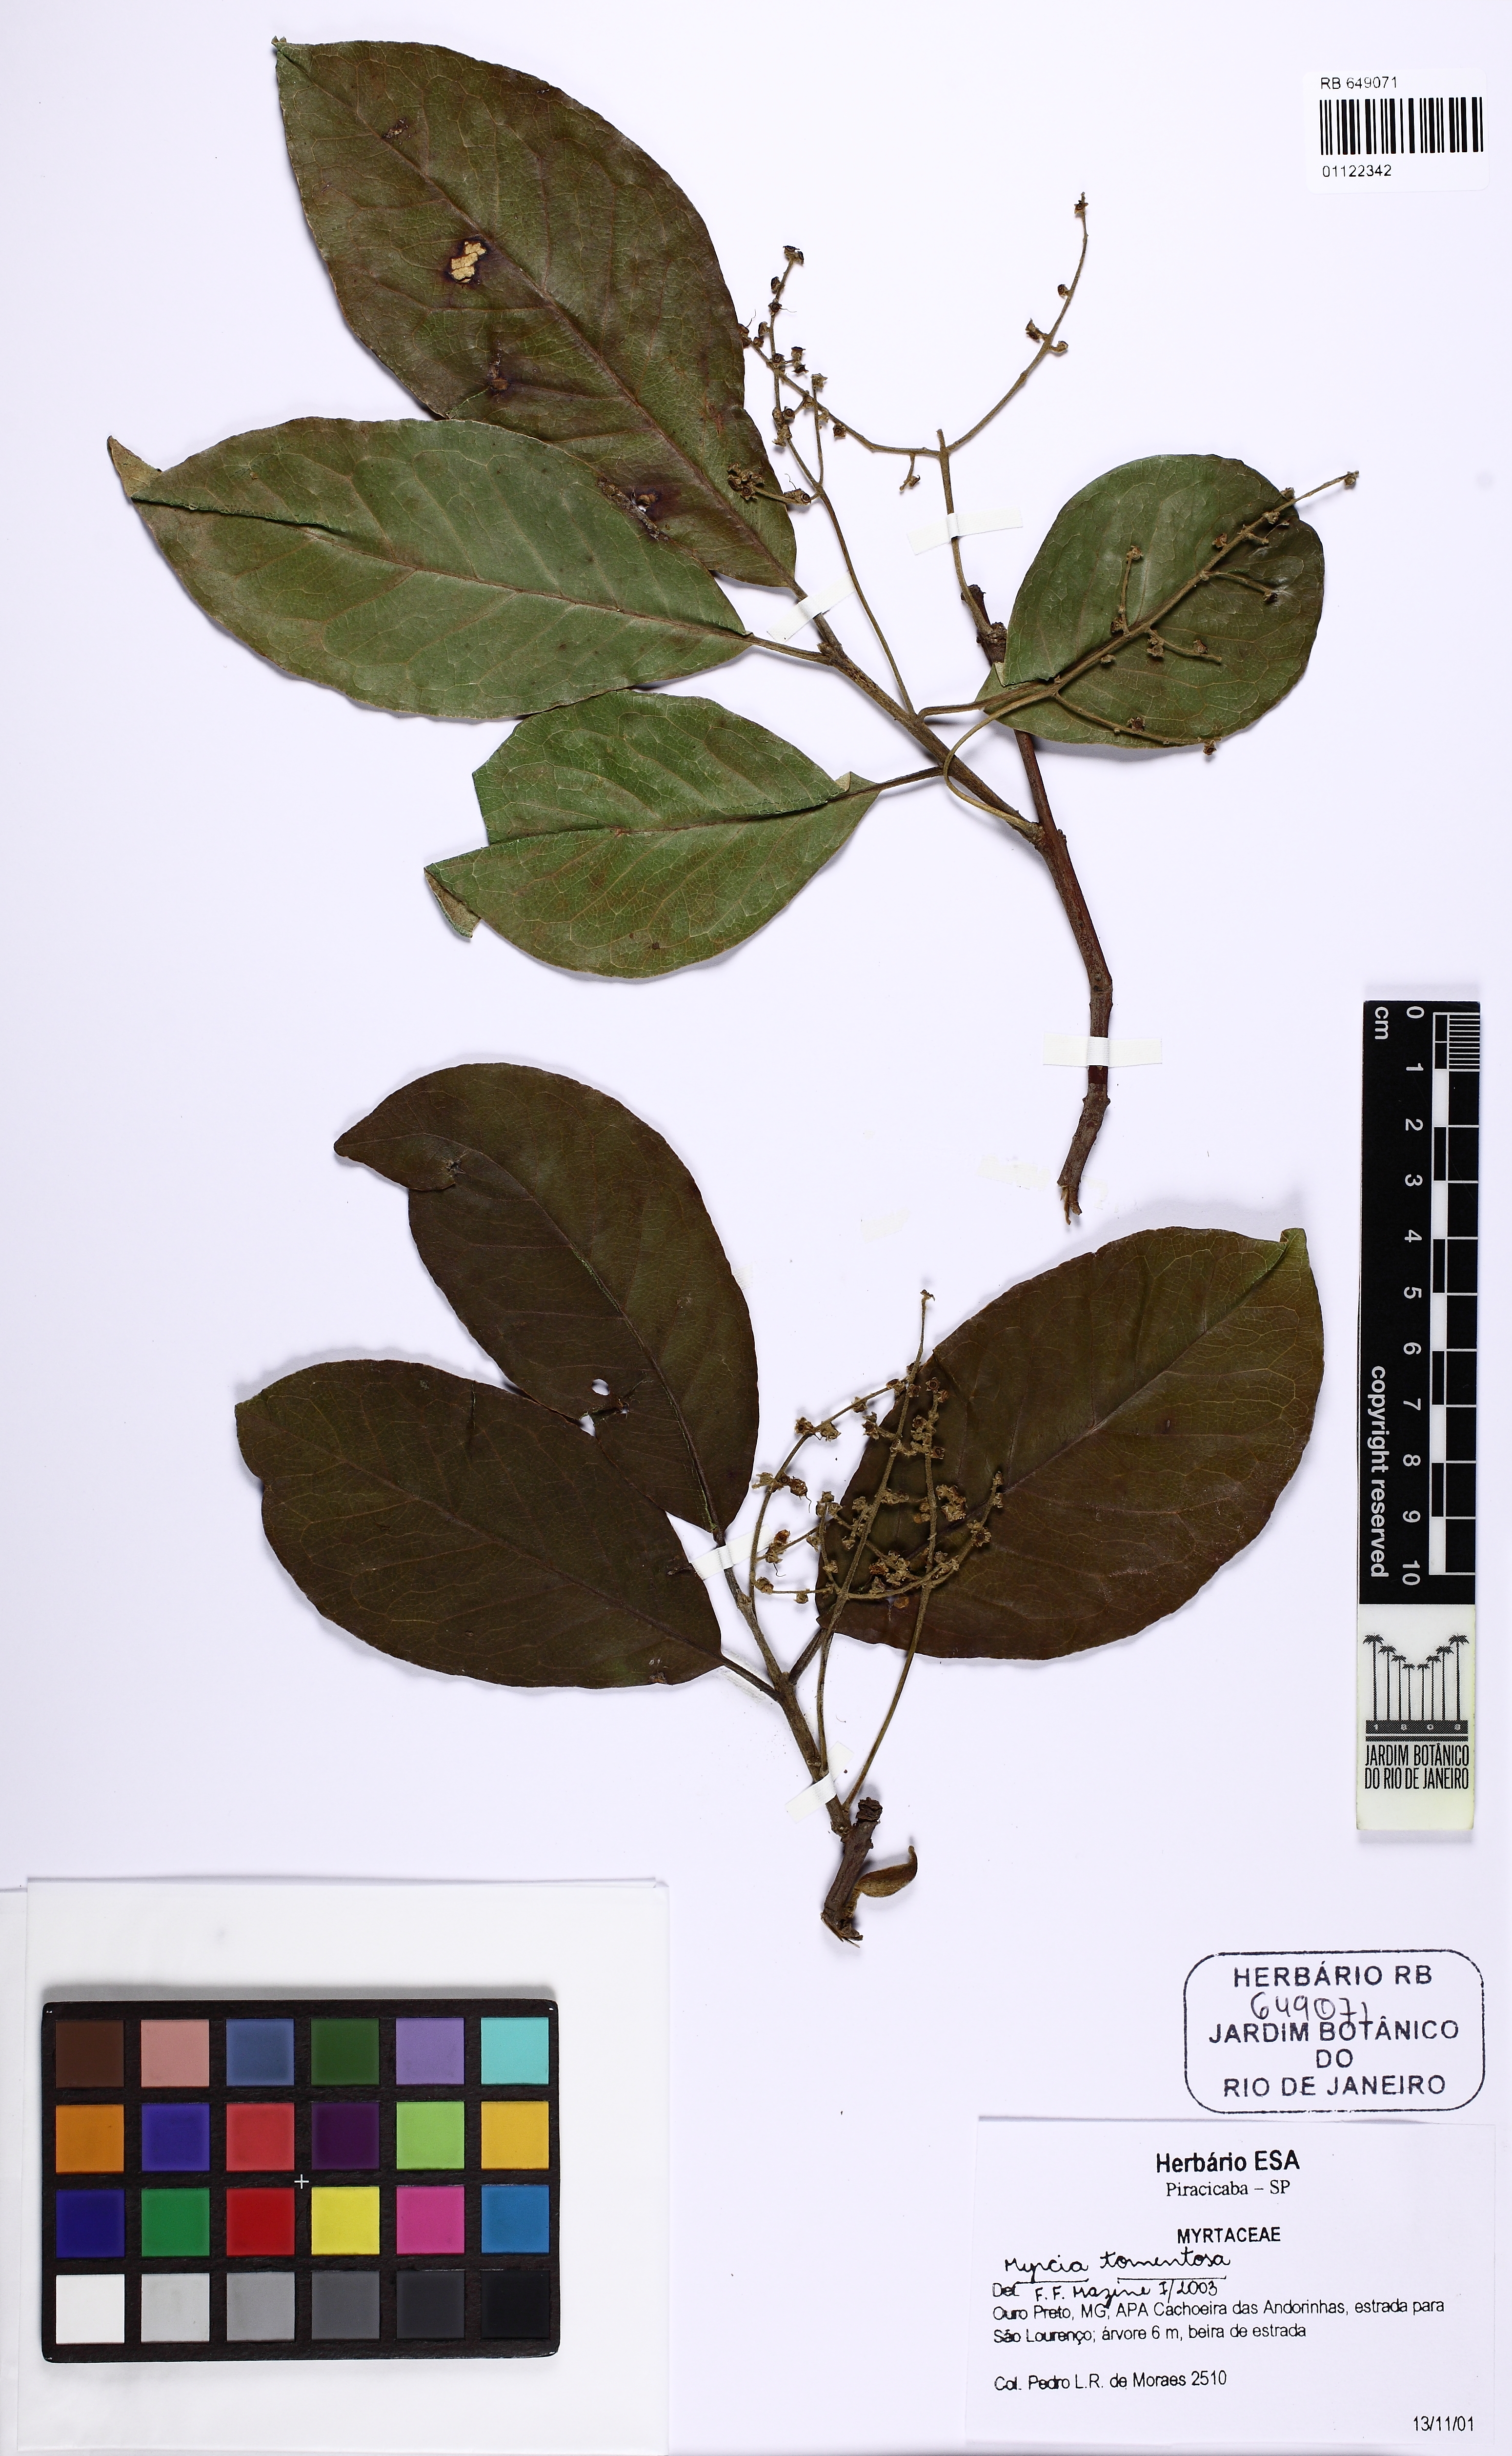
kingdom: Plantae
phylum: Tracheophyta
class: Magnoliopsida
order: Myrtales
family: Myrtaceae
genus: Myrcia
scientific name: Myrcia tomentosa
